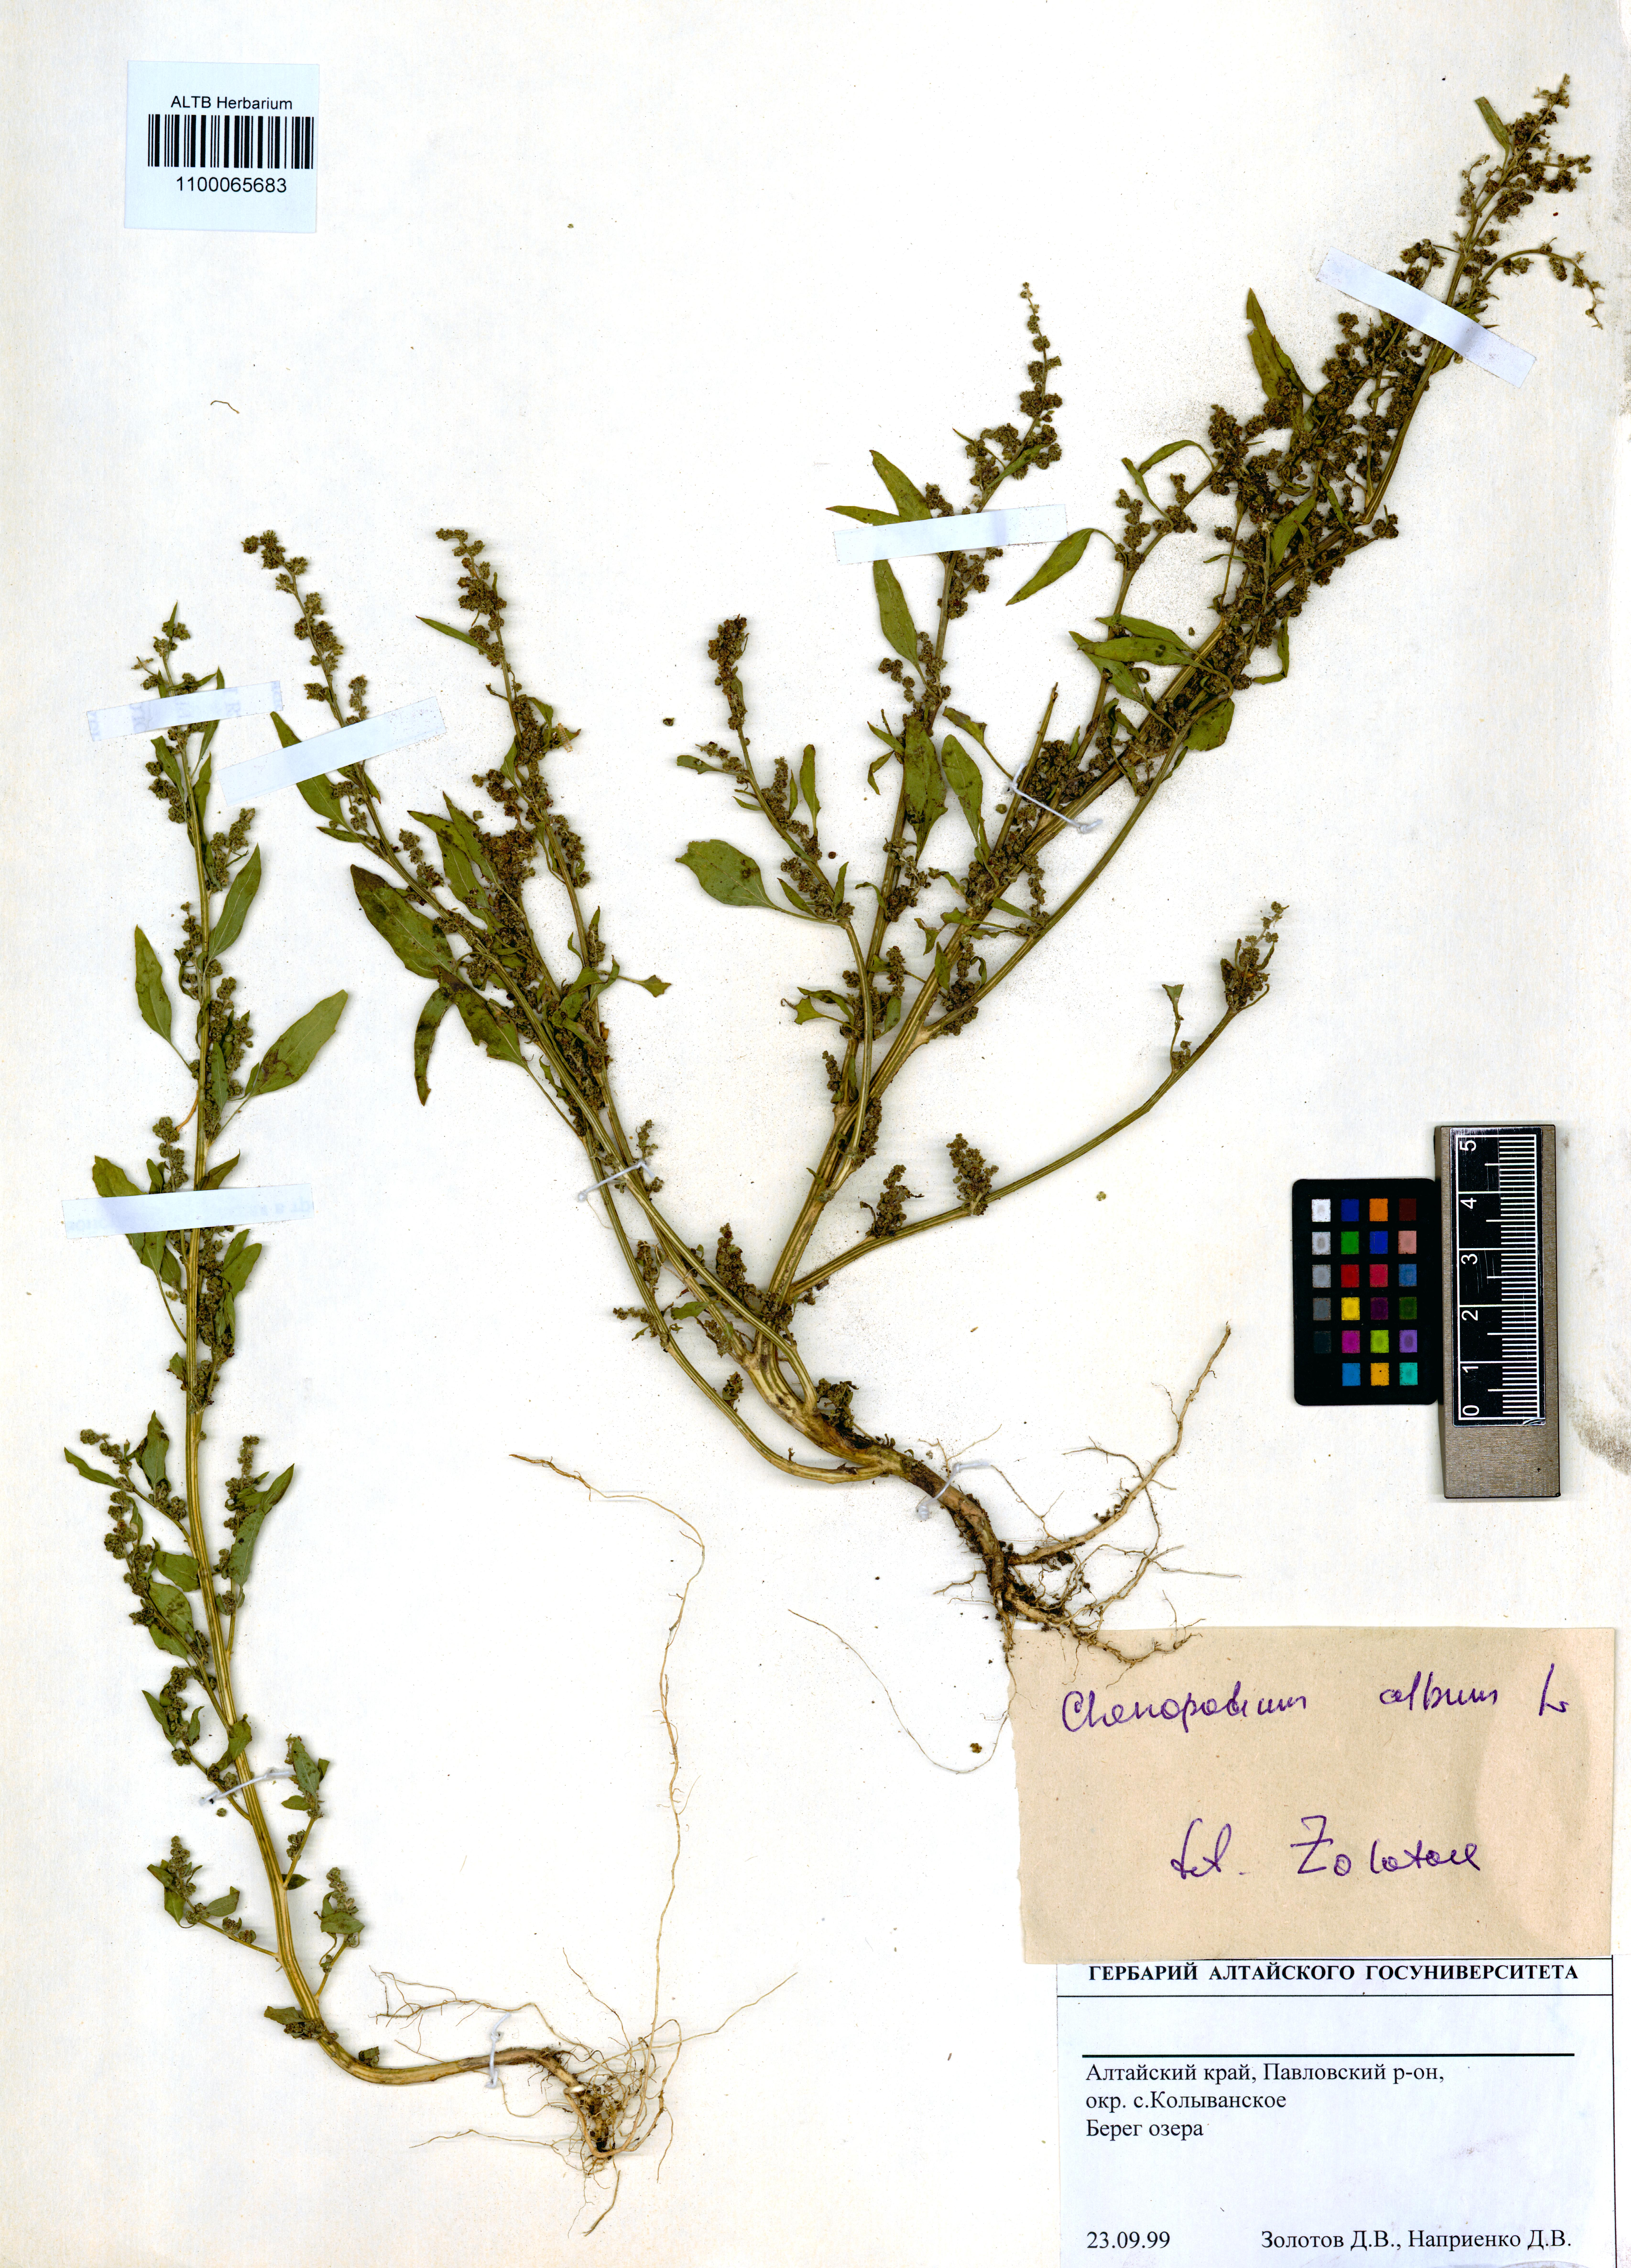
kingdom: Plantae
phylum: Tracheophyta
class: Magnoliopsida
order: Caryophyllales
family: Amaranthaceae
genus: Chenopodium
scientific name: Chenopodium album
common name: Fat-hen
